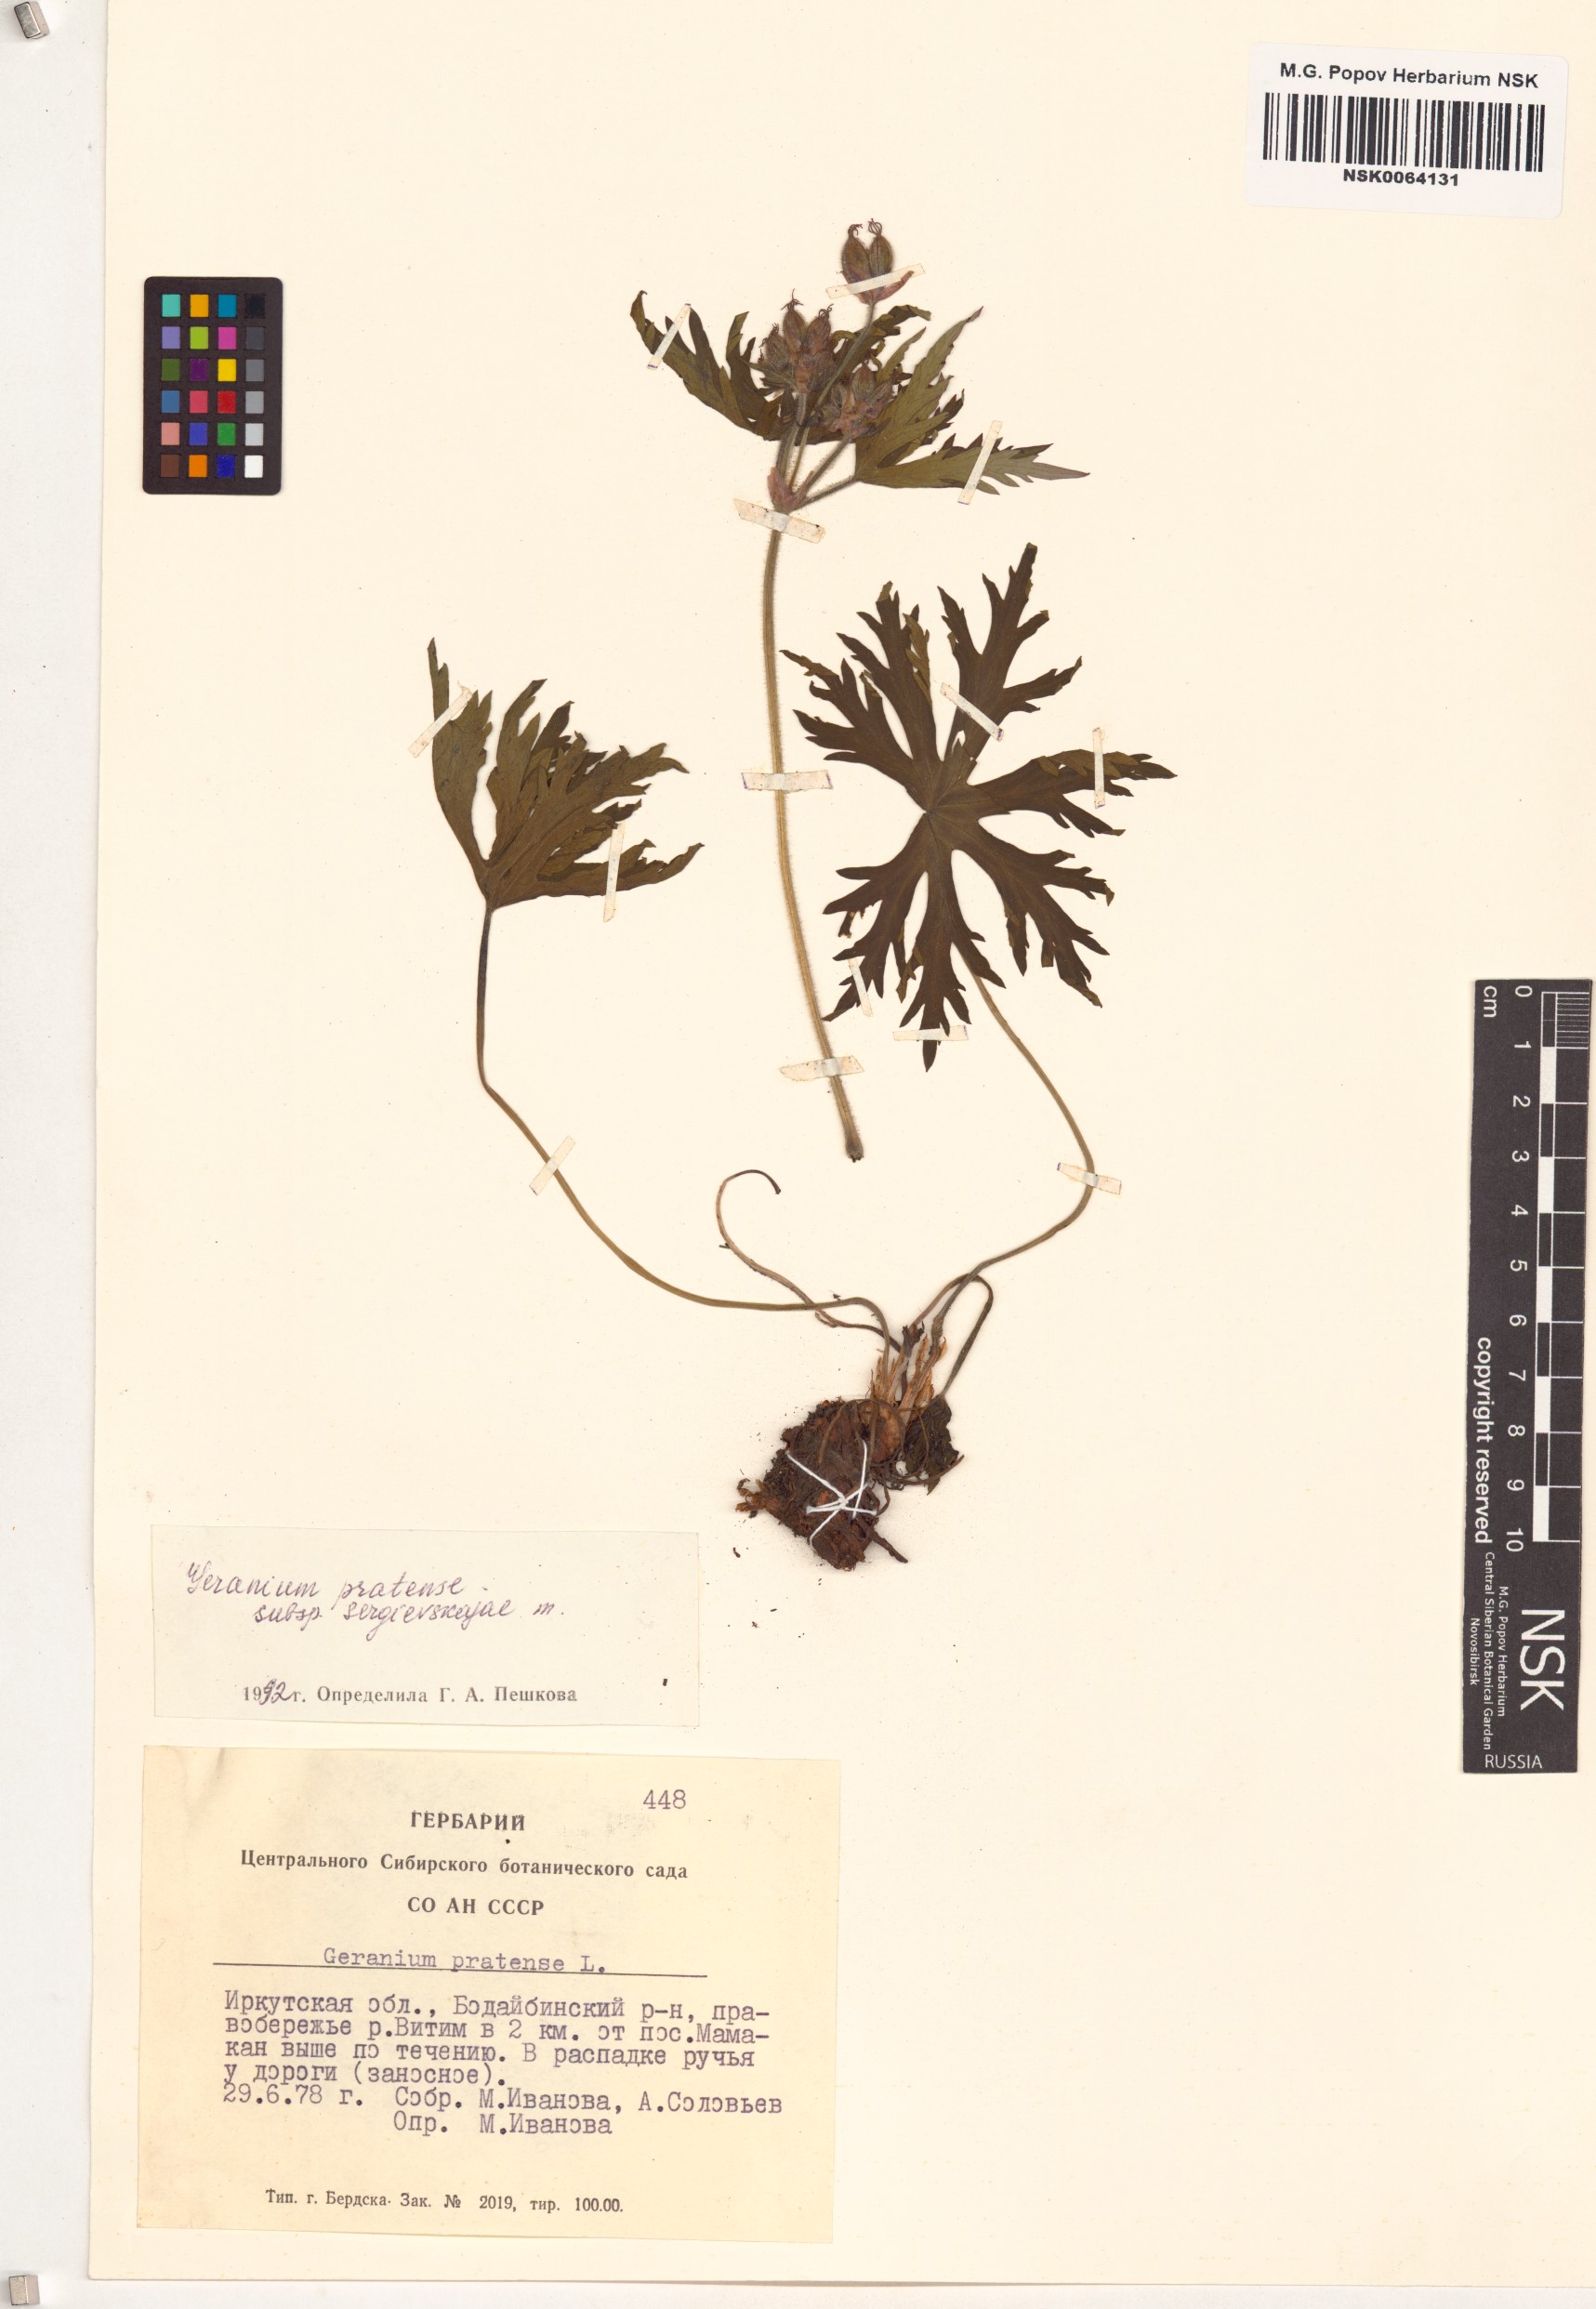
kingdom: Plantae
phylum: Tracheophyta
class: Magnoliopsida
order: Geraniales
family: Geraniaceae
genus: Geranium
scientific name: Geranium pratense
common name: Meadow crane's-bill
